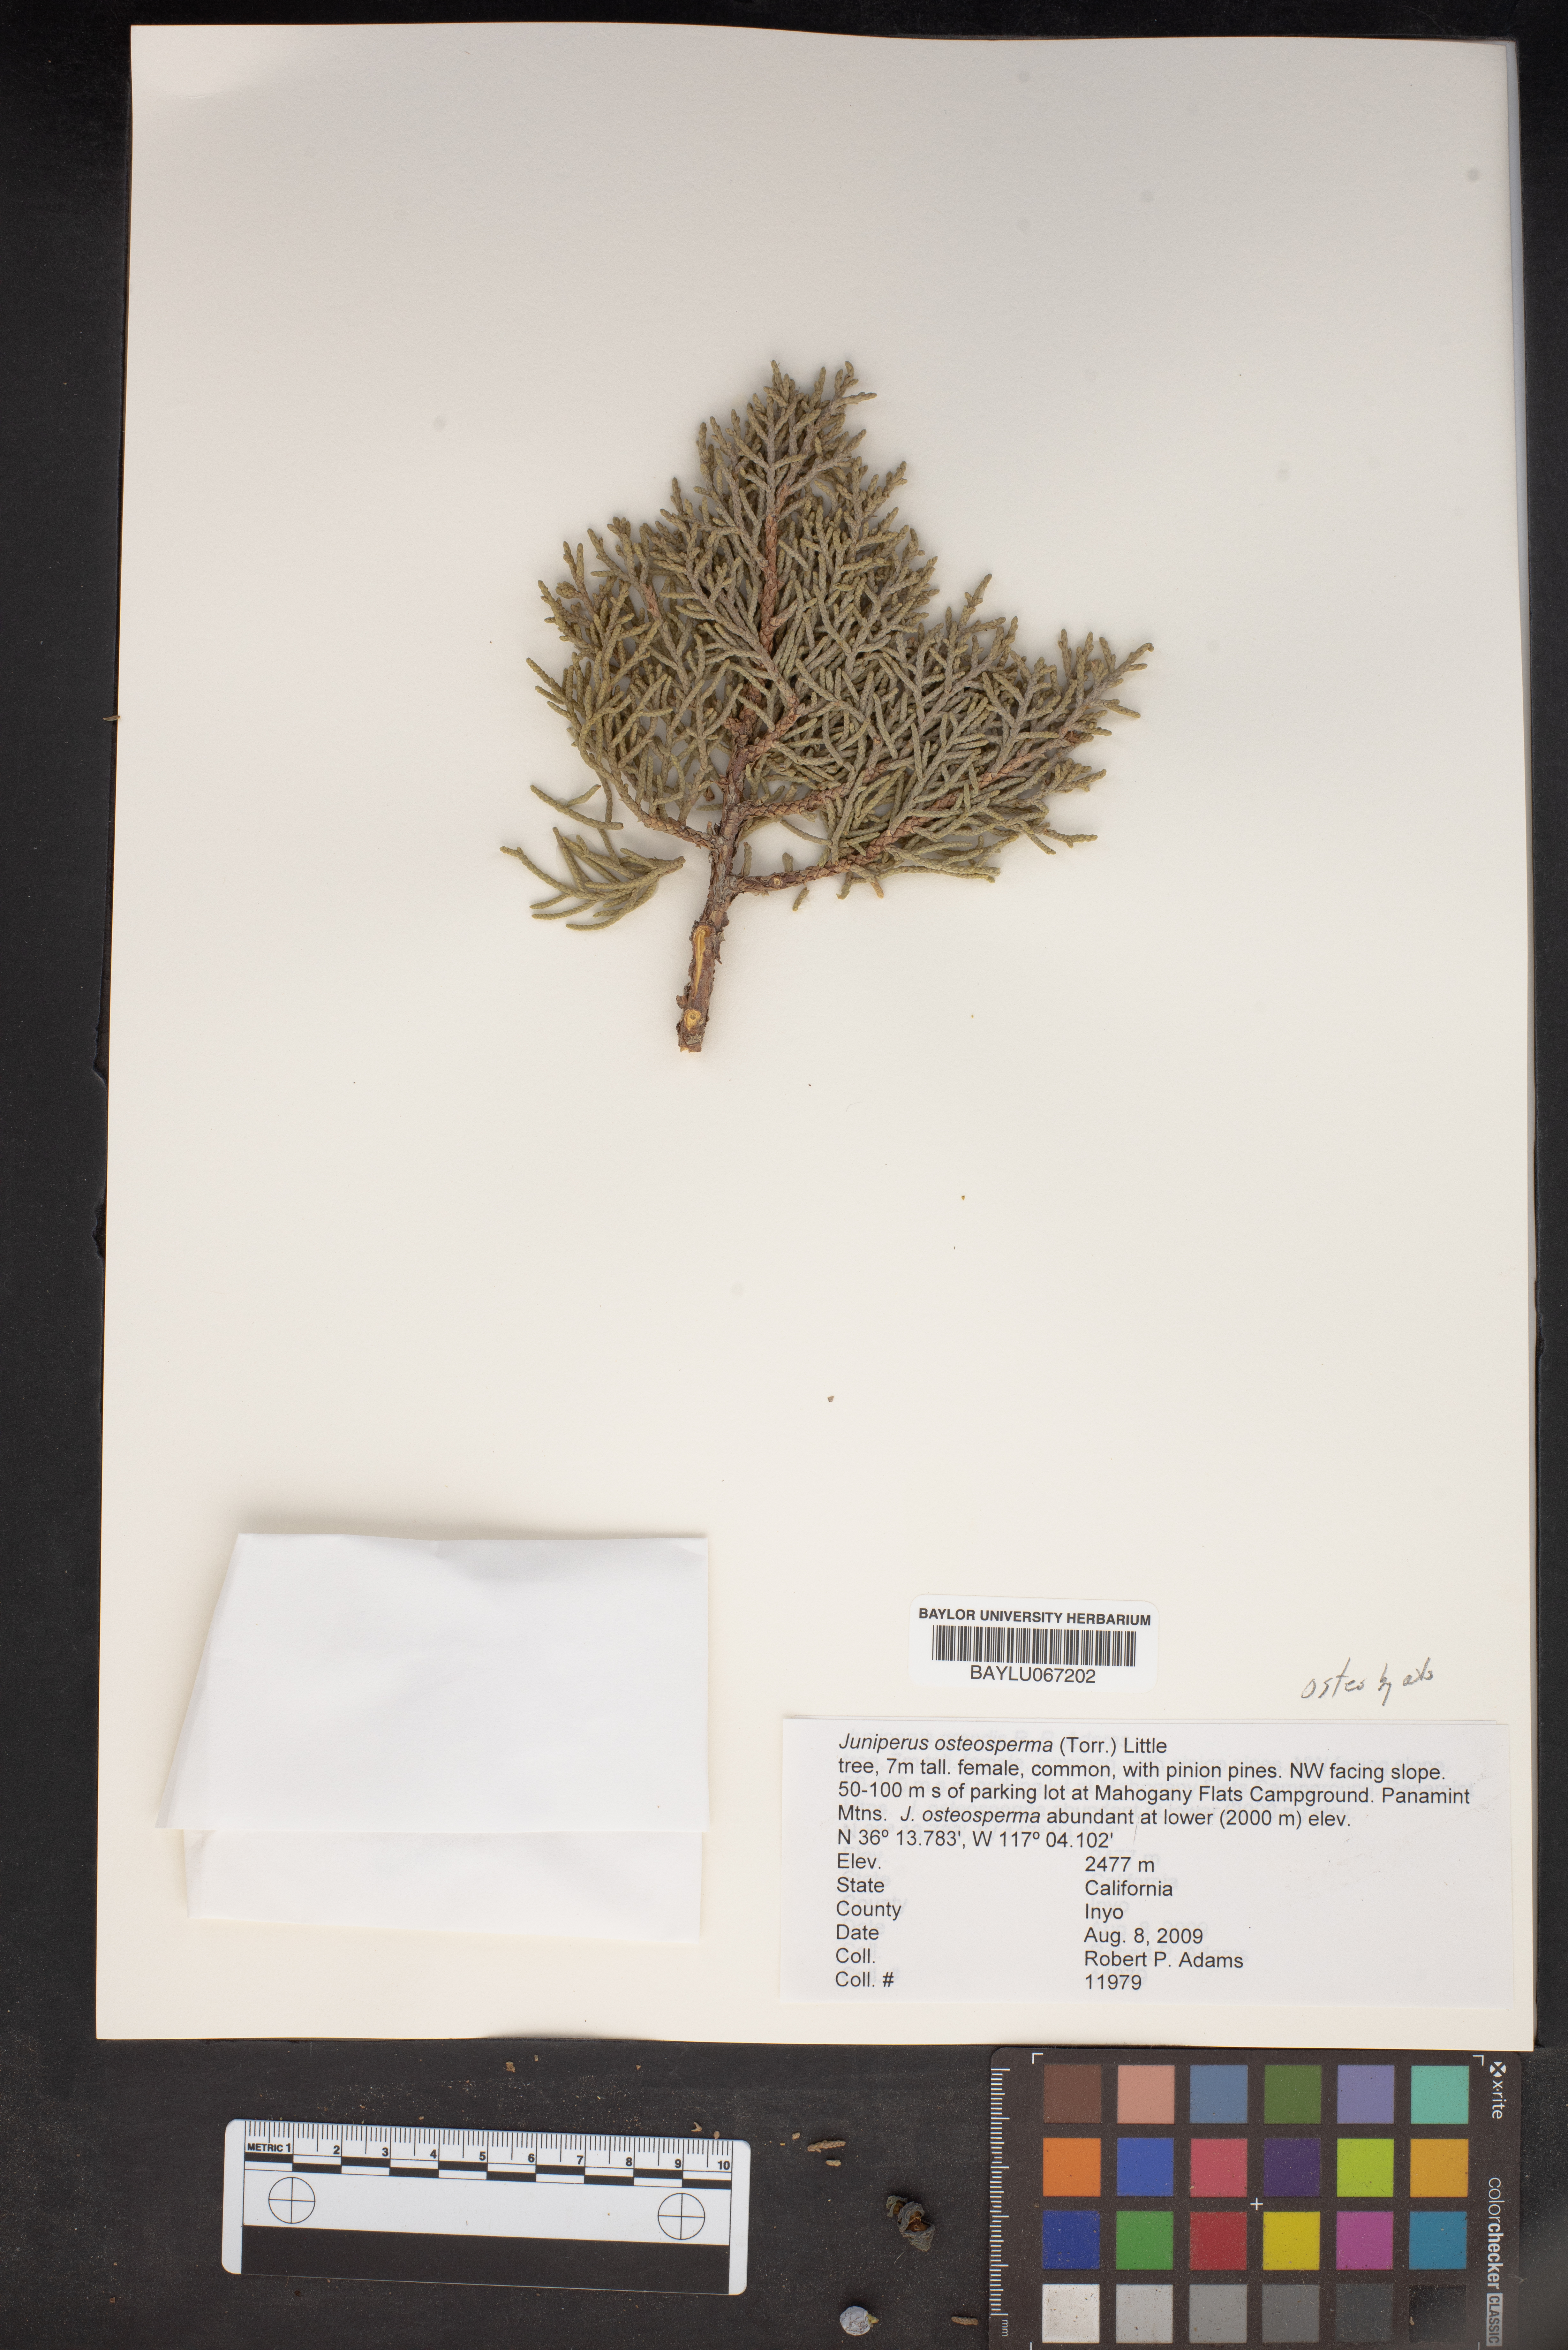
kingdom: Plantae
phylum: Tracheophyta
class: Pinopsida
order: Pinales
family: Cupressaceae
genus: Juniperus
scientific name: Juniperus osteosperma
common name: Utah juniper
